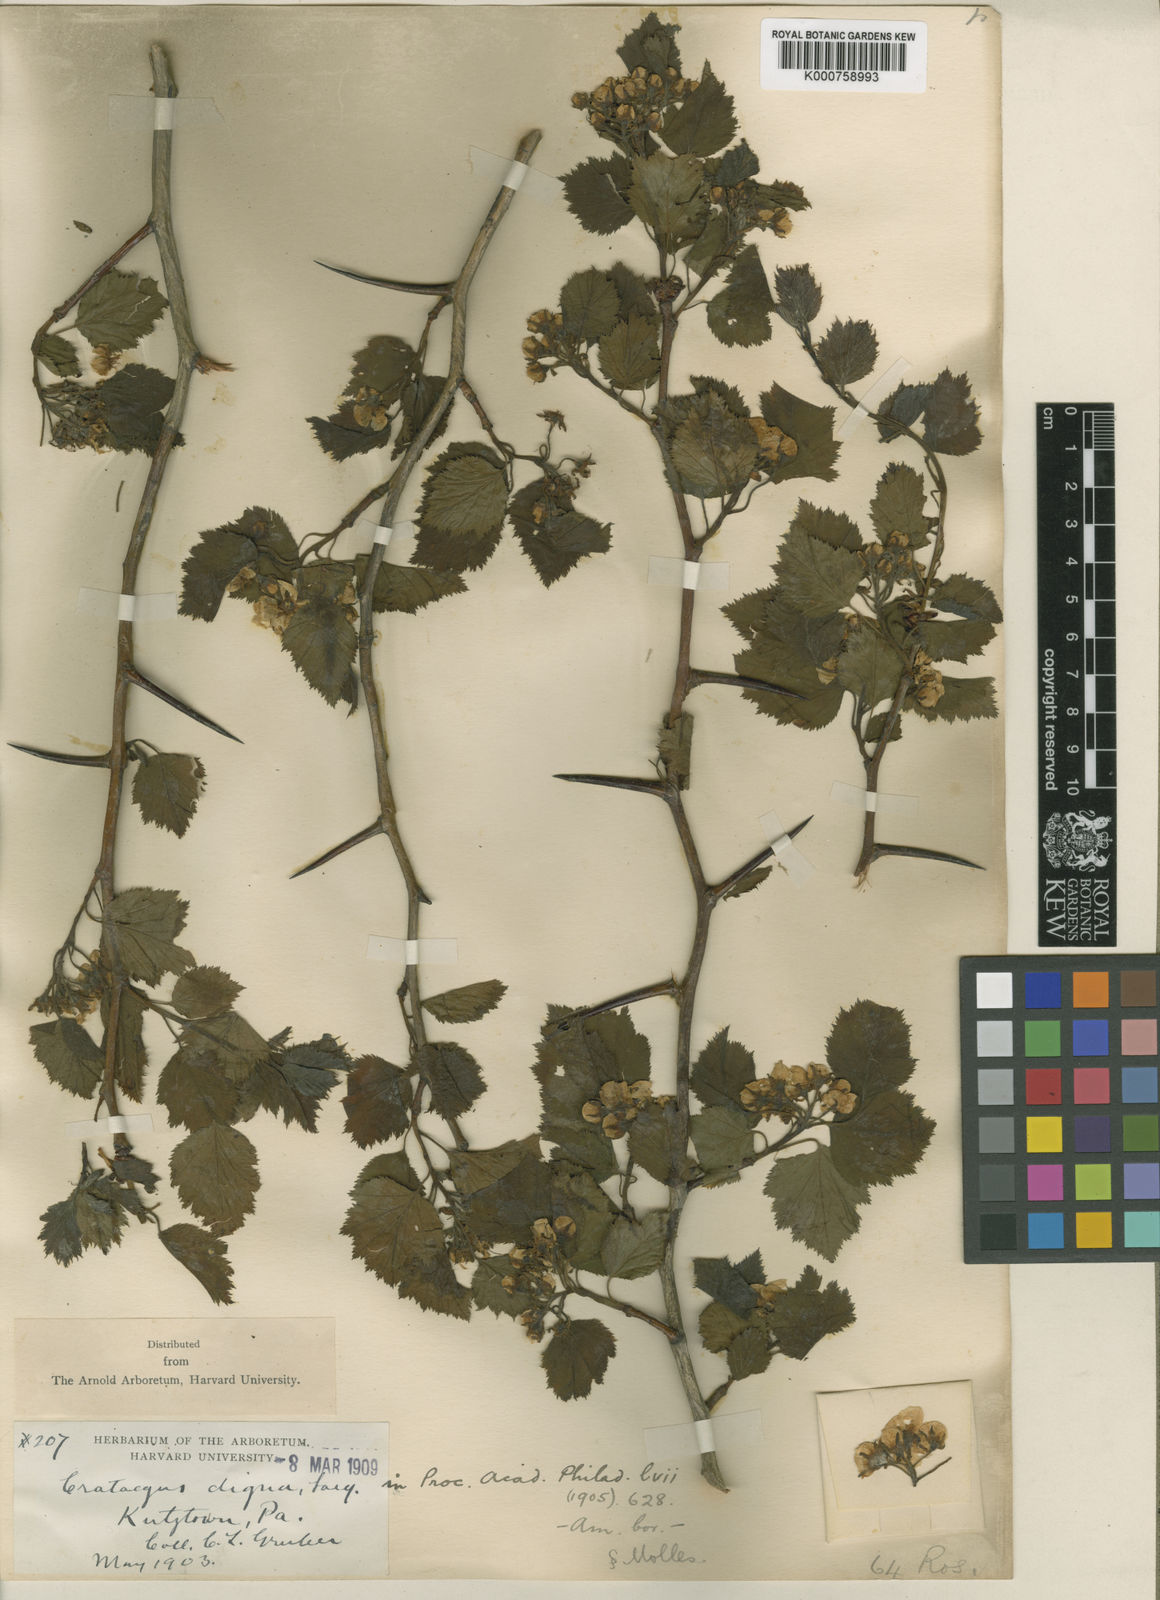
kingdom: Plantae
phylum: Tracheophyta
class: Magnoliopsida
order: Rosales
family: Rosaceae
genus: Crataegus
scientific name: Crataegus digna
